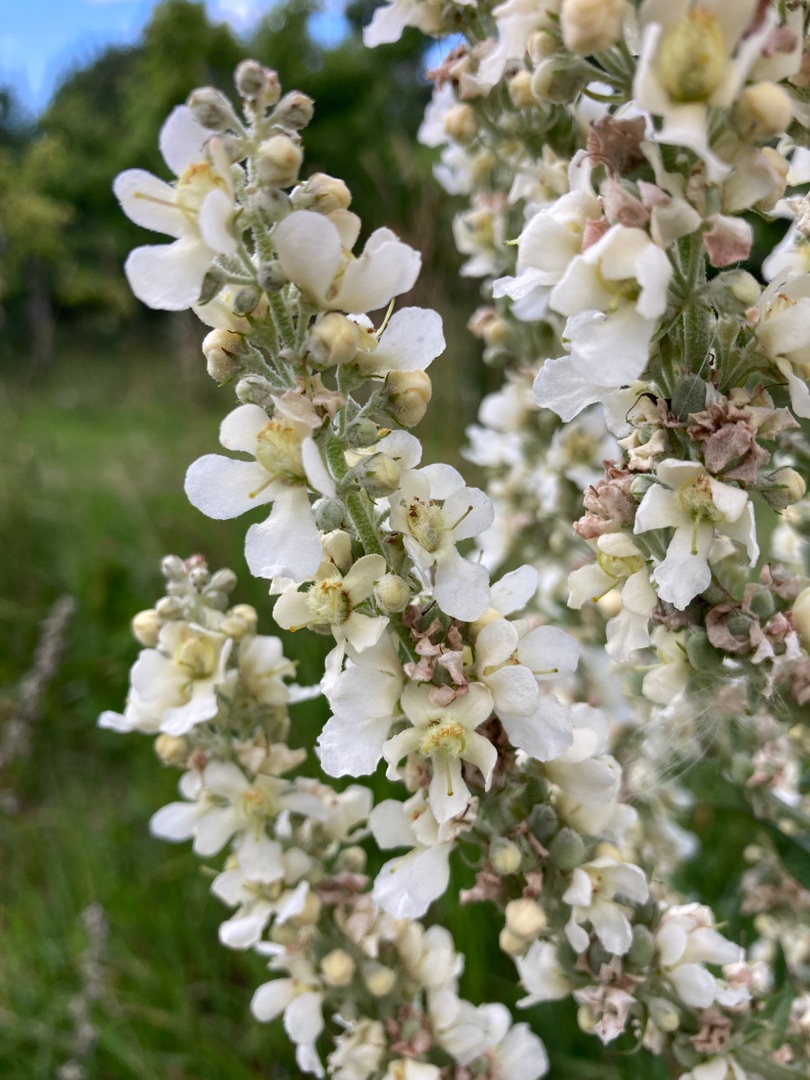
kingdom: Plantae
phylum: Tracheophyta
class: Magnoliopsida
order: Lamiales
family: Scrophulariaceae
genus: Verbascum
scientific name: Verbascum lychnitis
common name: Bleg kongelys
